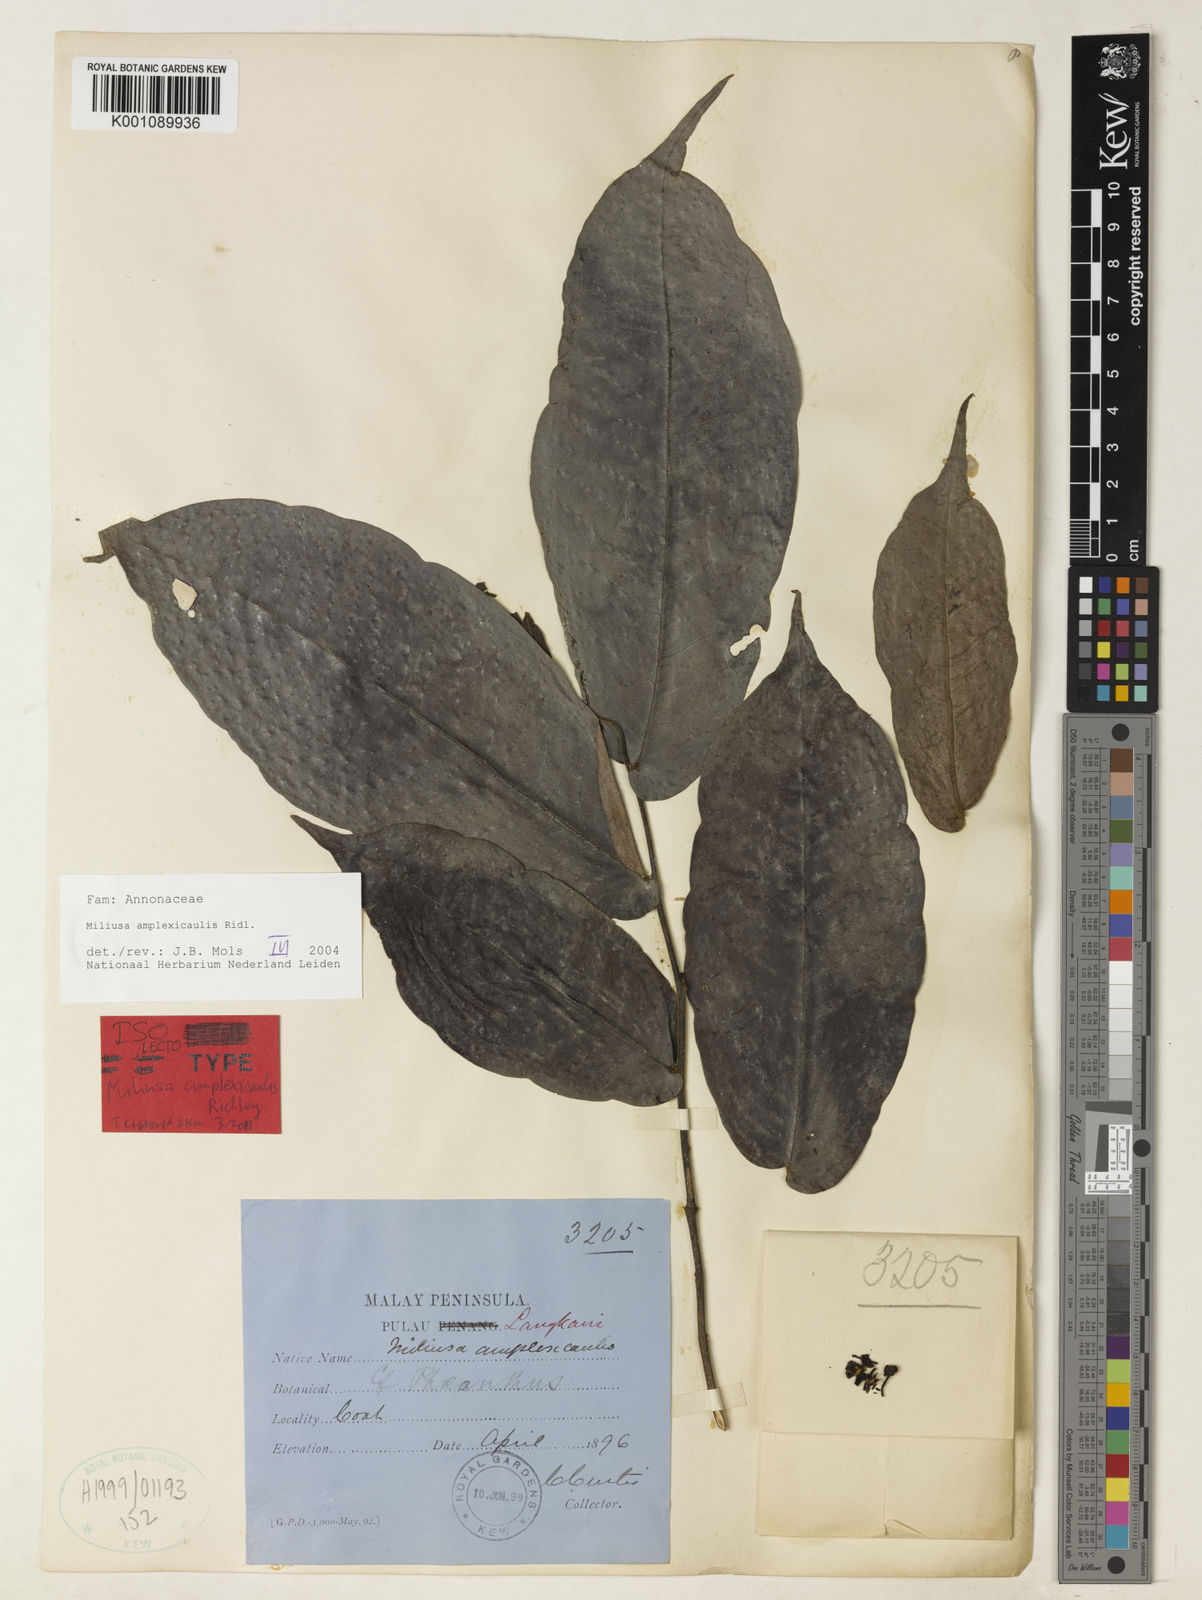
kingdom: Plantae
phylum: Tracheophyta
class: Magnoliopsida
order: Magnoliales
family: Annonaceae
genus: Miliusa
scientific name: Miliusa amplexicaulis
